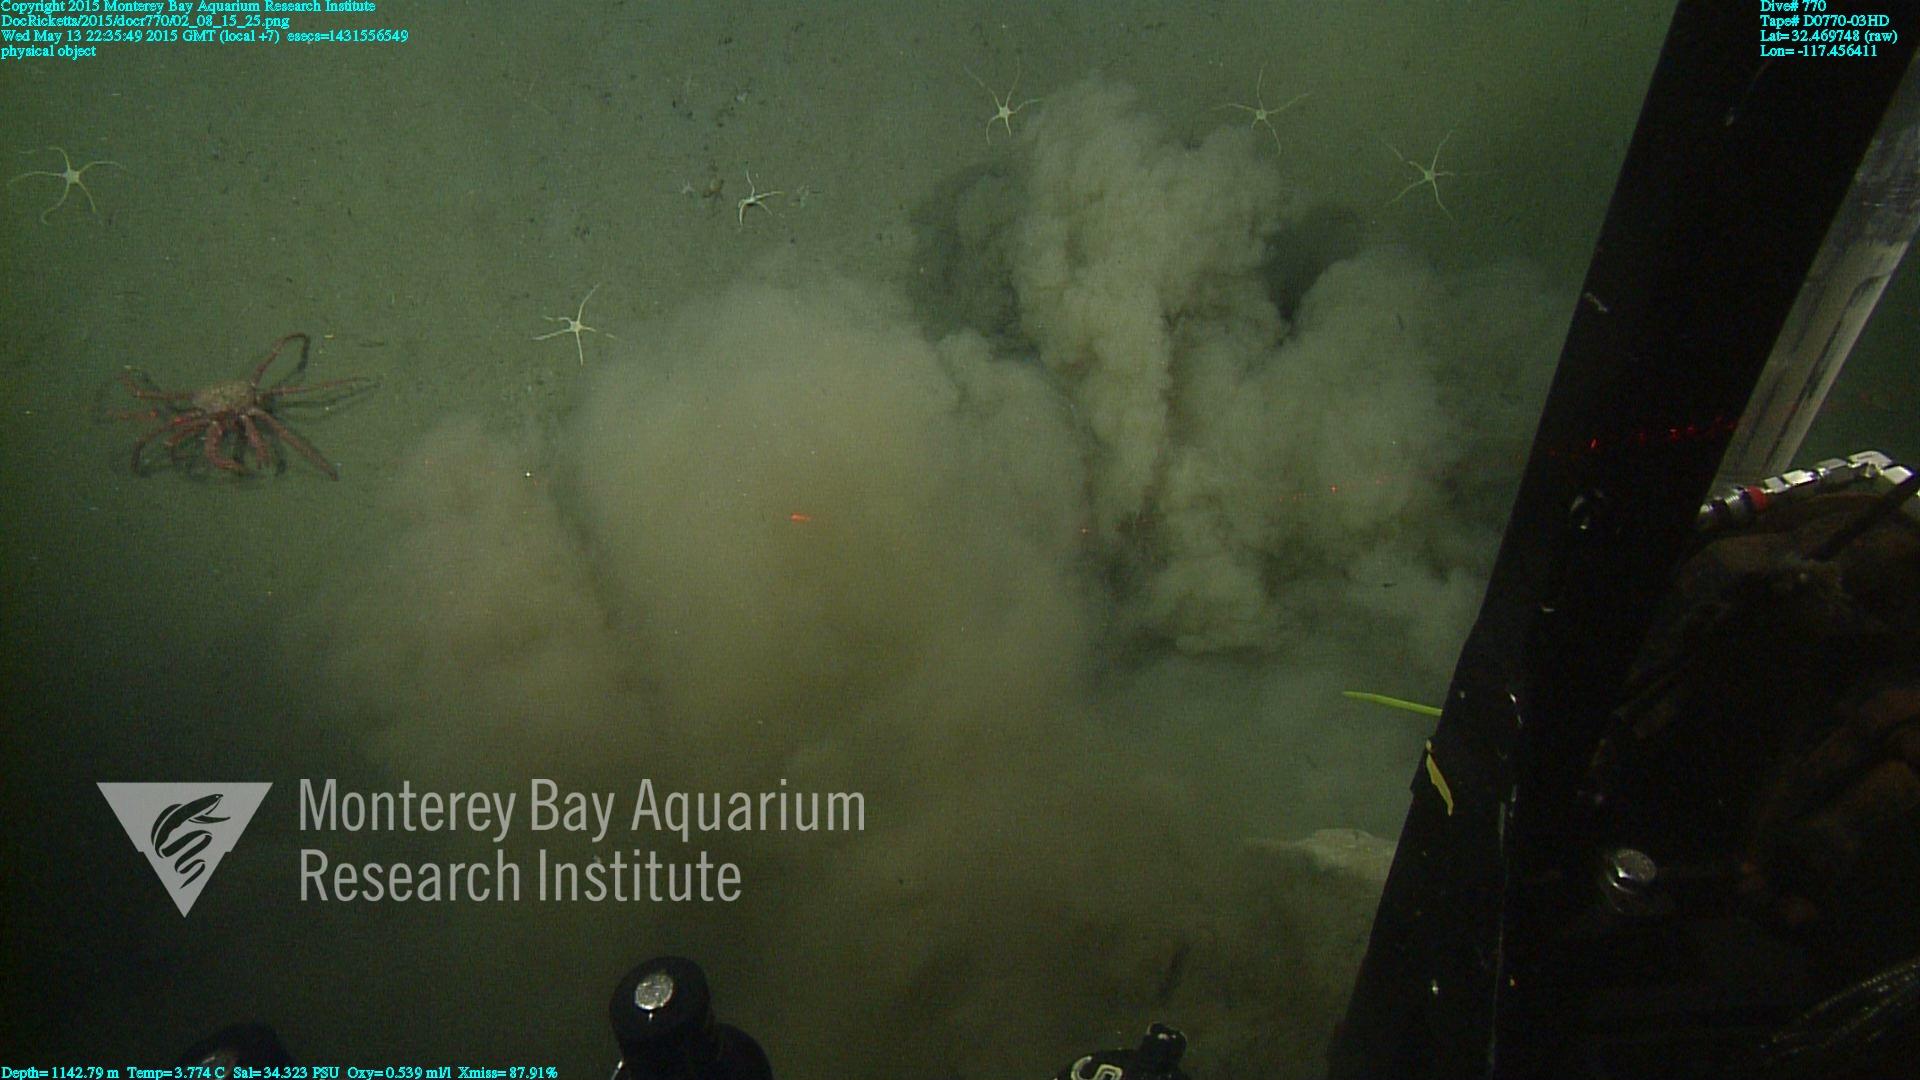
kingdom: Animalia
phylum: Cnidaria
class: Anthozoa
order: Scleralcyonacea
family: Primnoidae
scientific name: Primnoidae
